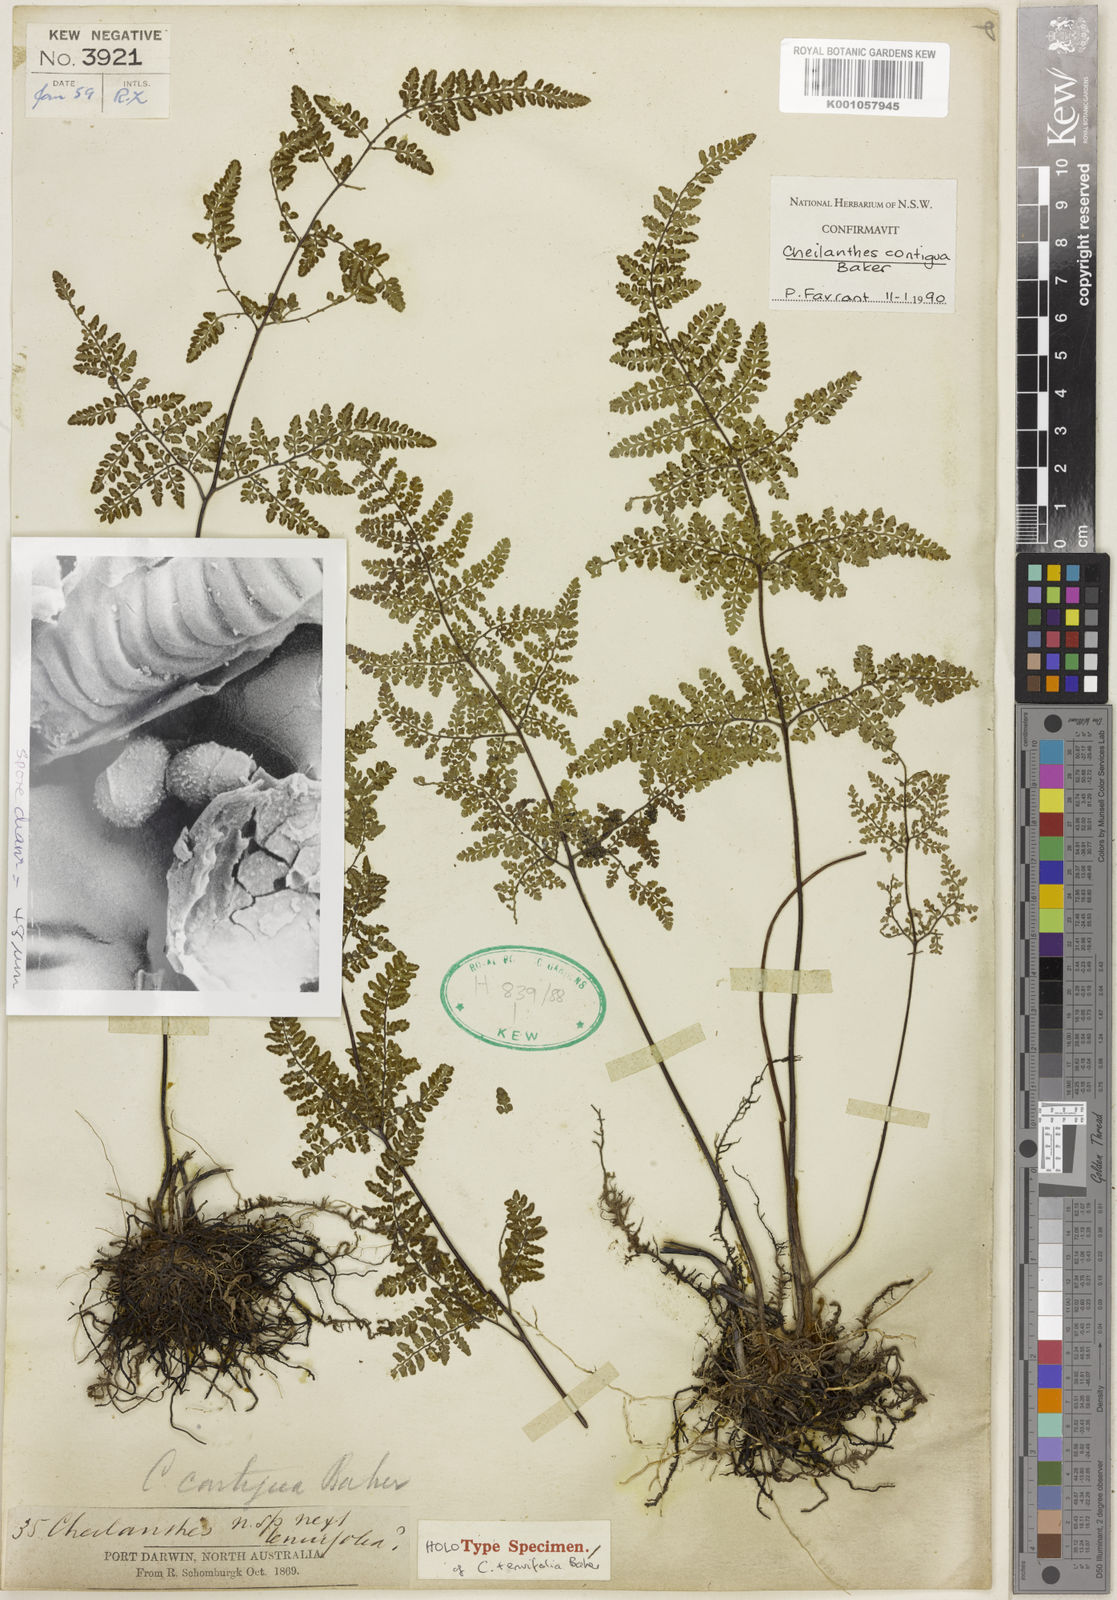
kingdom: Plantae
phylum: Tracheophyta
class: Polypodiopsida
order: Polypodiales
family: Pteridaceae
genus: Cheilanthes
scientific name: Cheilanthes caudata
